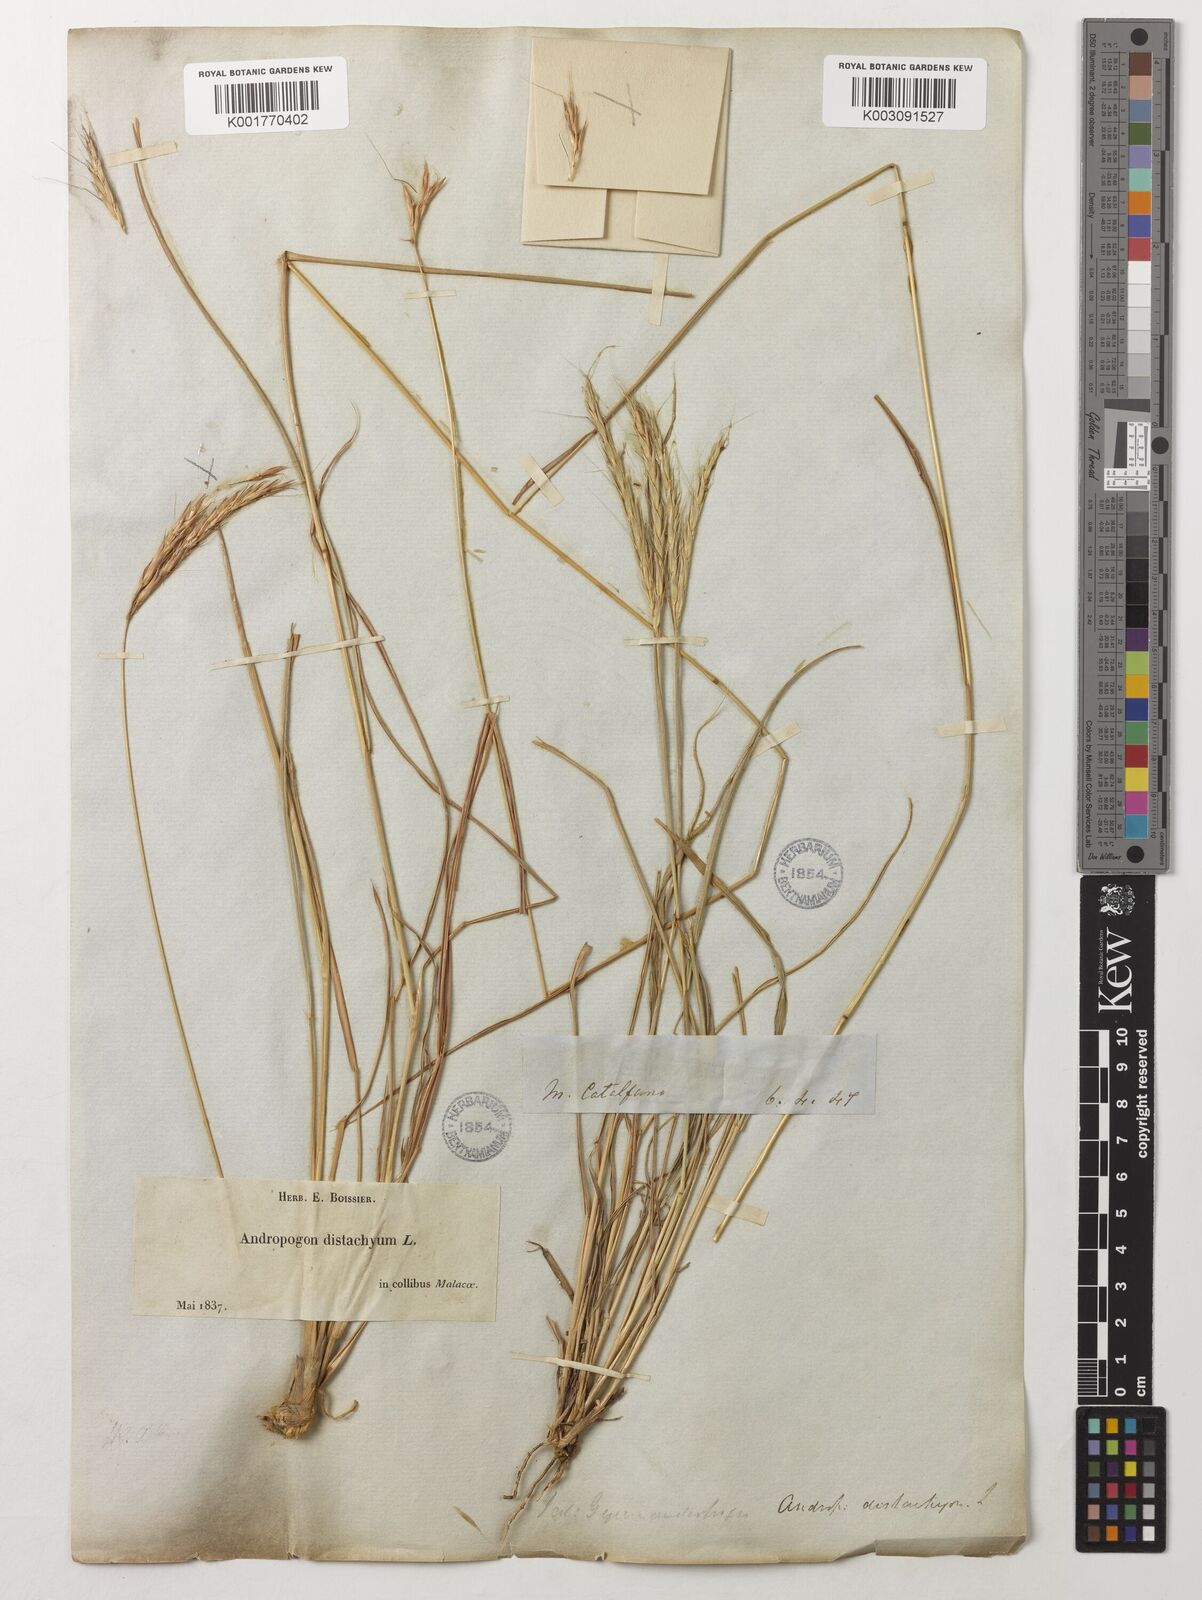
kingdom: Plantae
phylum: Tracheophyta
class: Liliopsida
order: Poales
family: Poaceae
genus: Andropogon
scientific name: Andropogon distachyos
